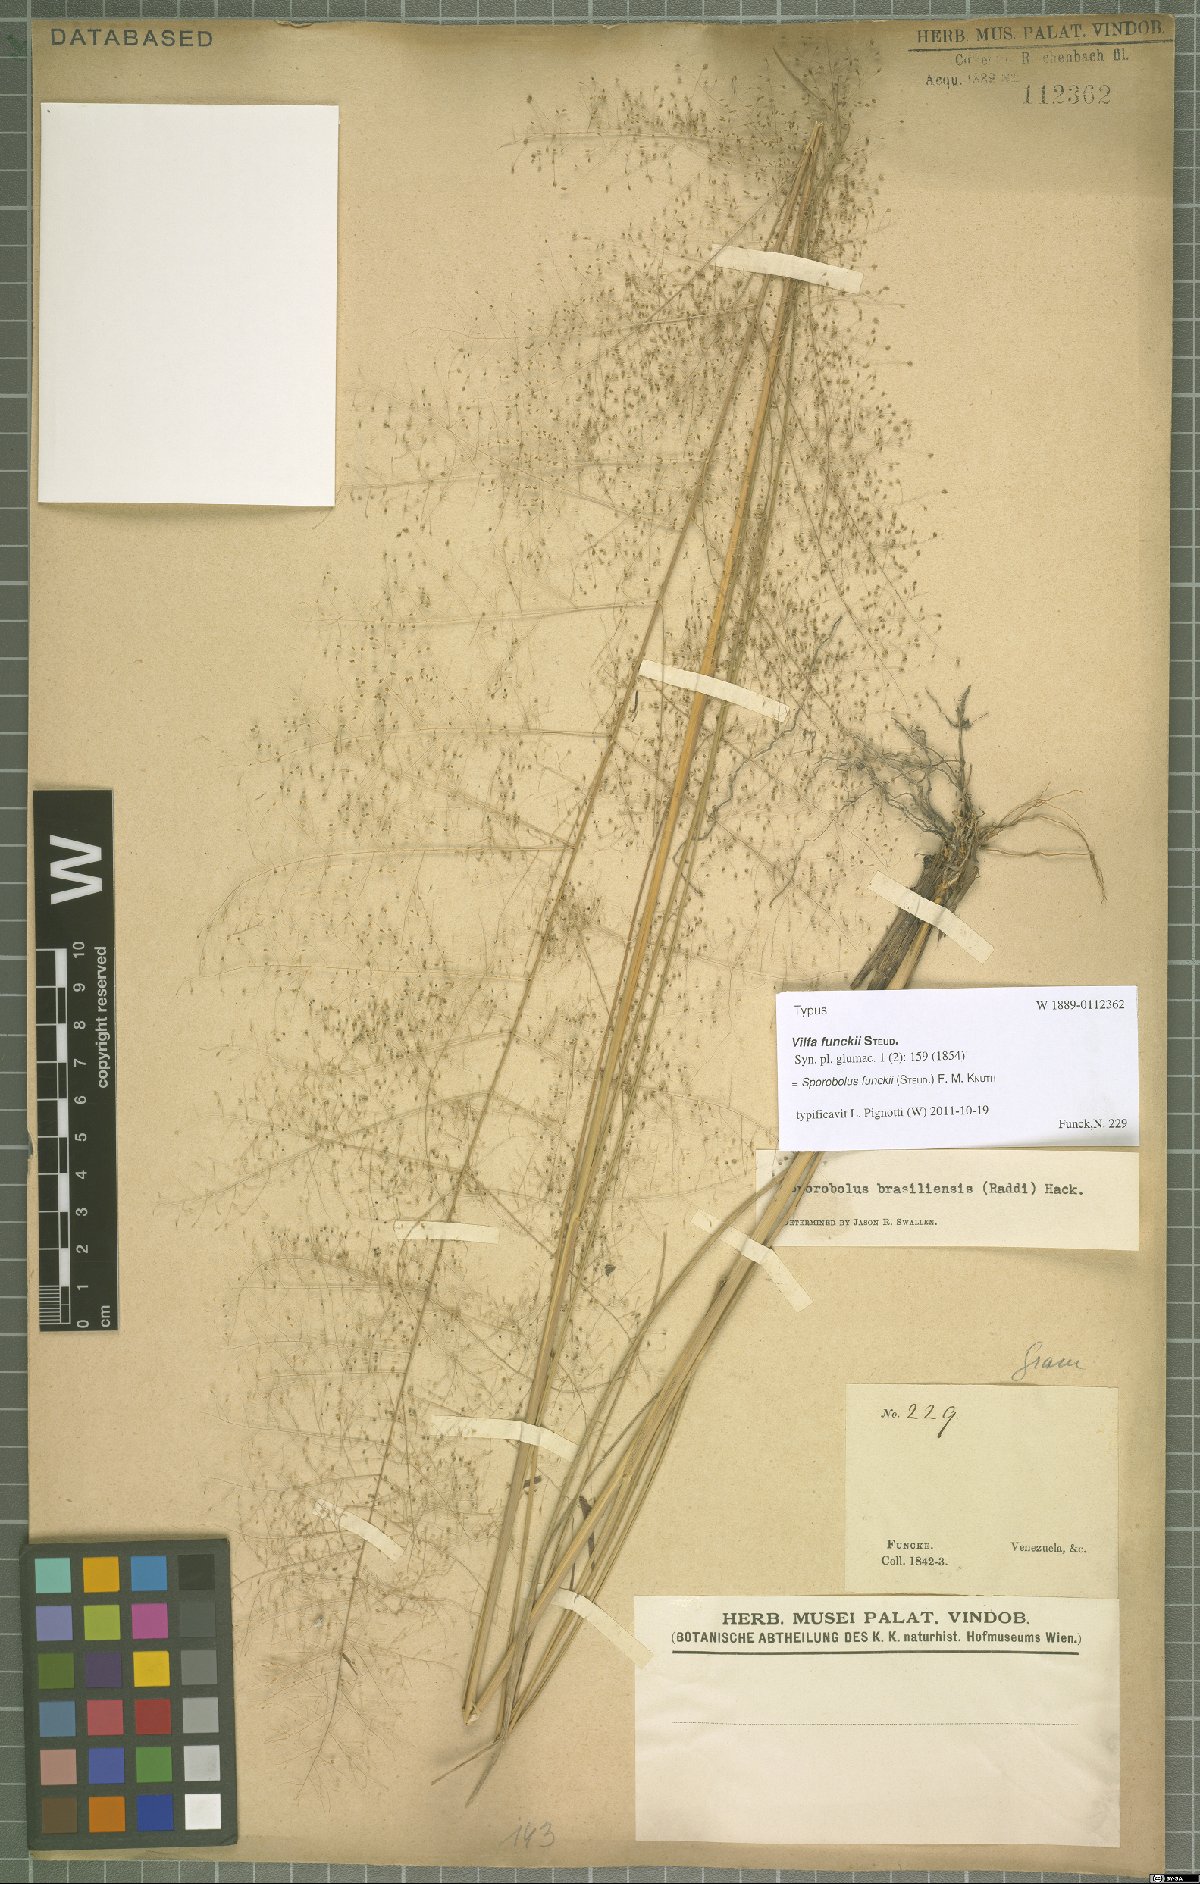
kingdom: Plantae
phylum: Tracheophyta
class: Liliopsida
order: Poales
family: Poaceae
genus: Eragrostis
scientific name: Eragrostis airoides
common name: Darnel lovegrass
